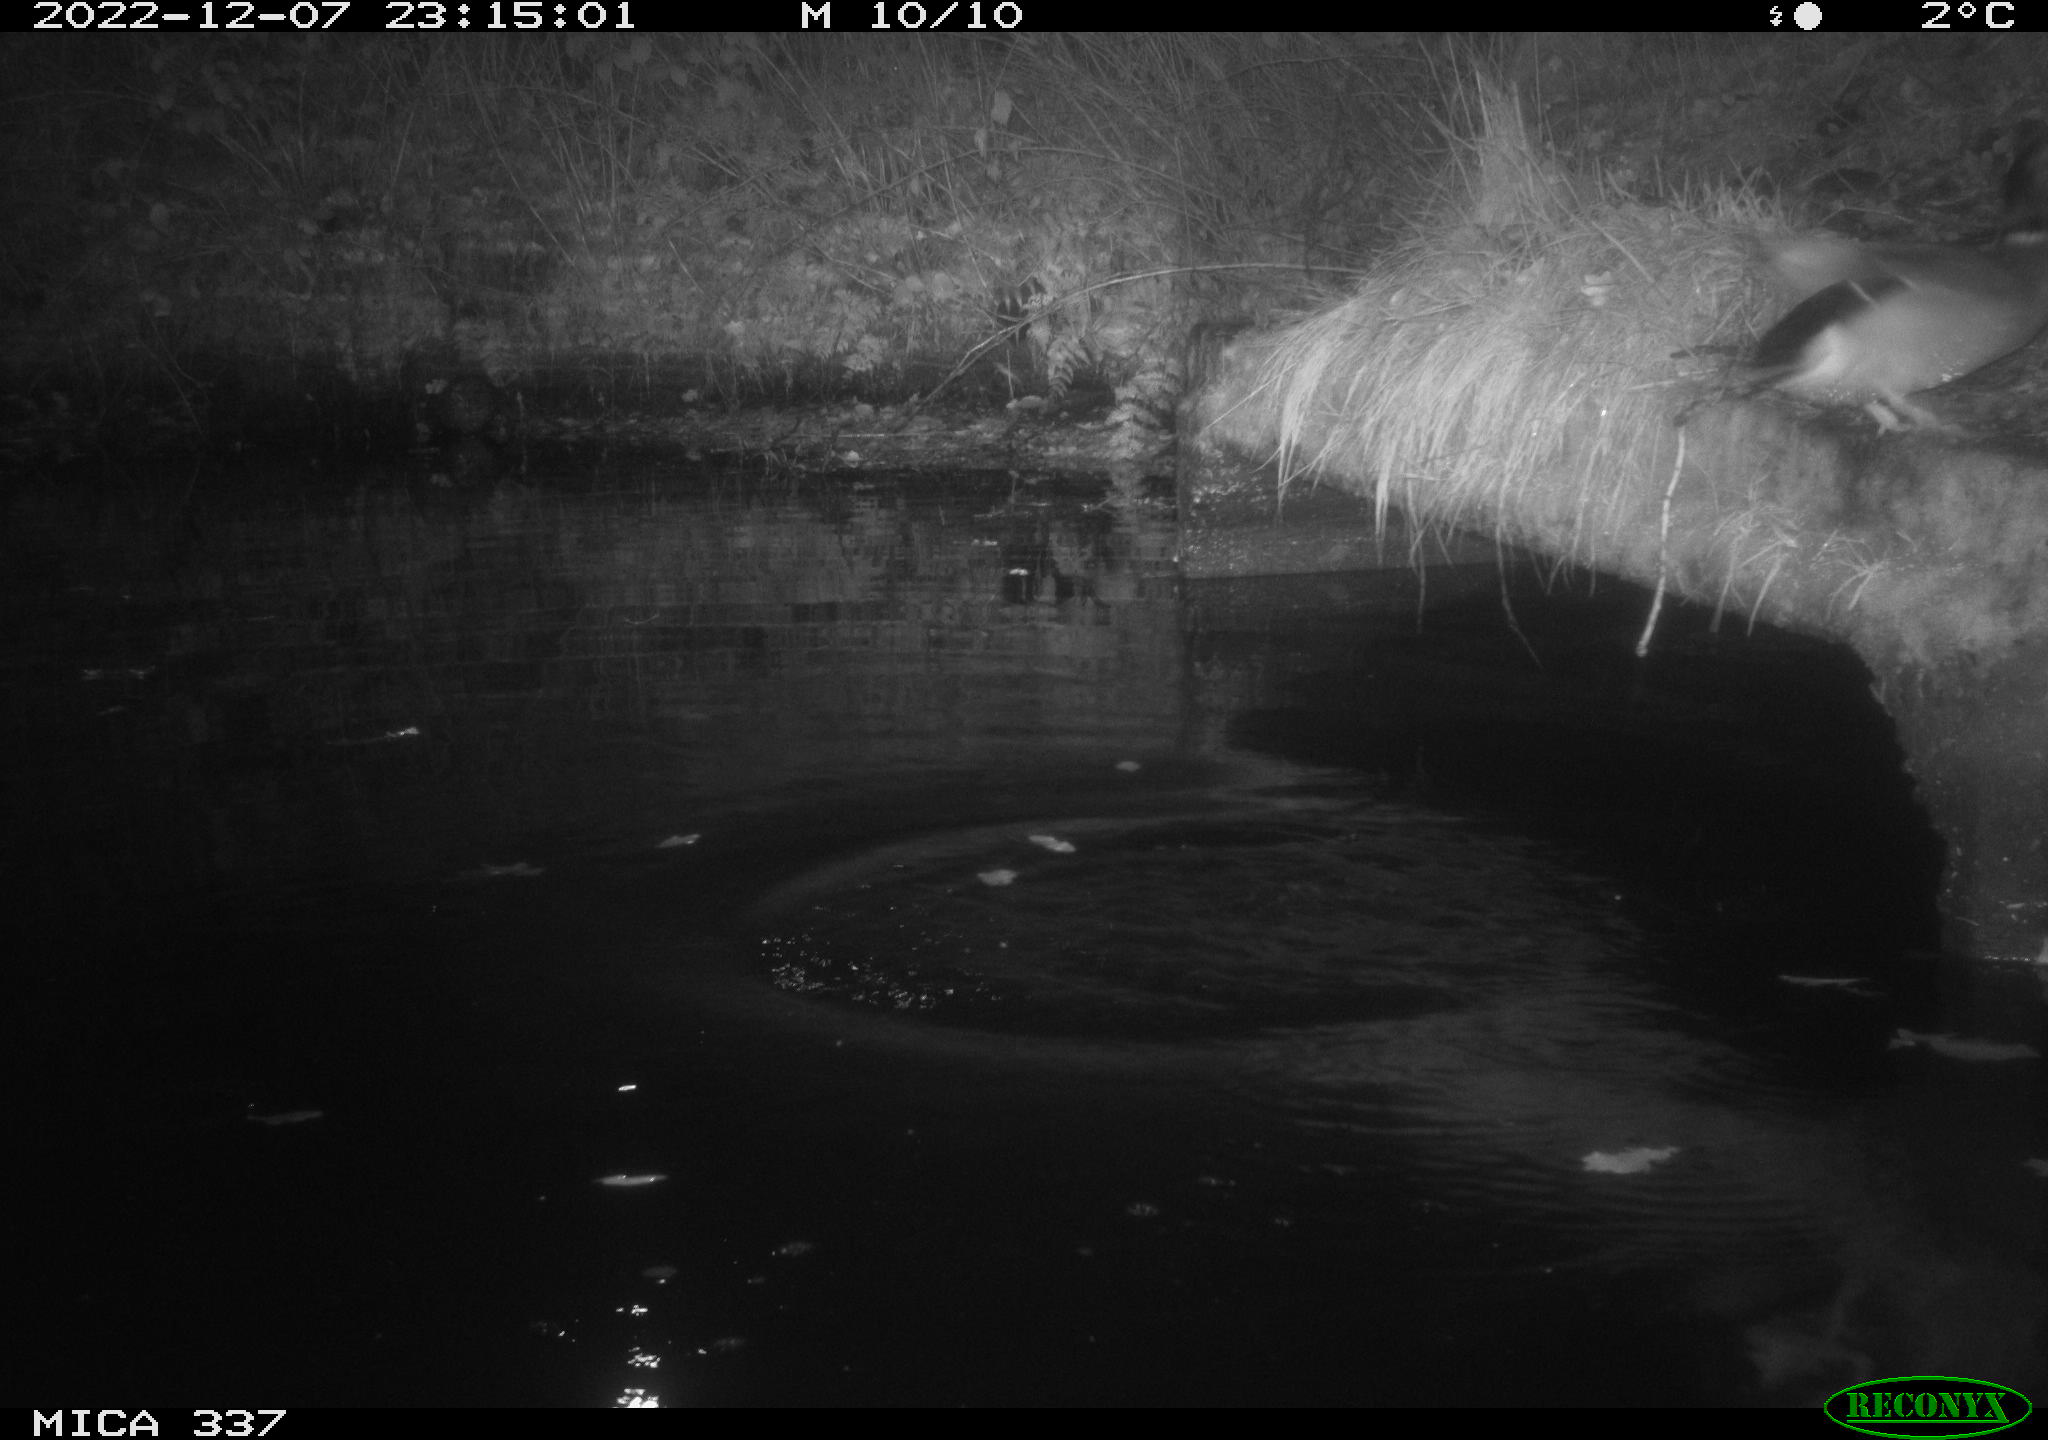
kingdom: Animalia
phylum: Chordata
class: Aves
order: Anseriformes
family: Anatidae
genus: Anas
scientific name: Anas
